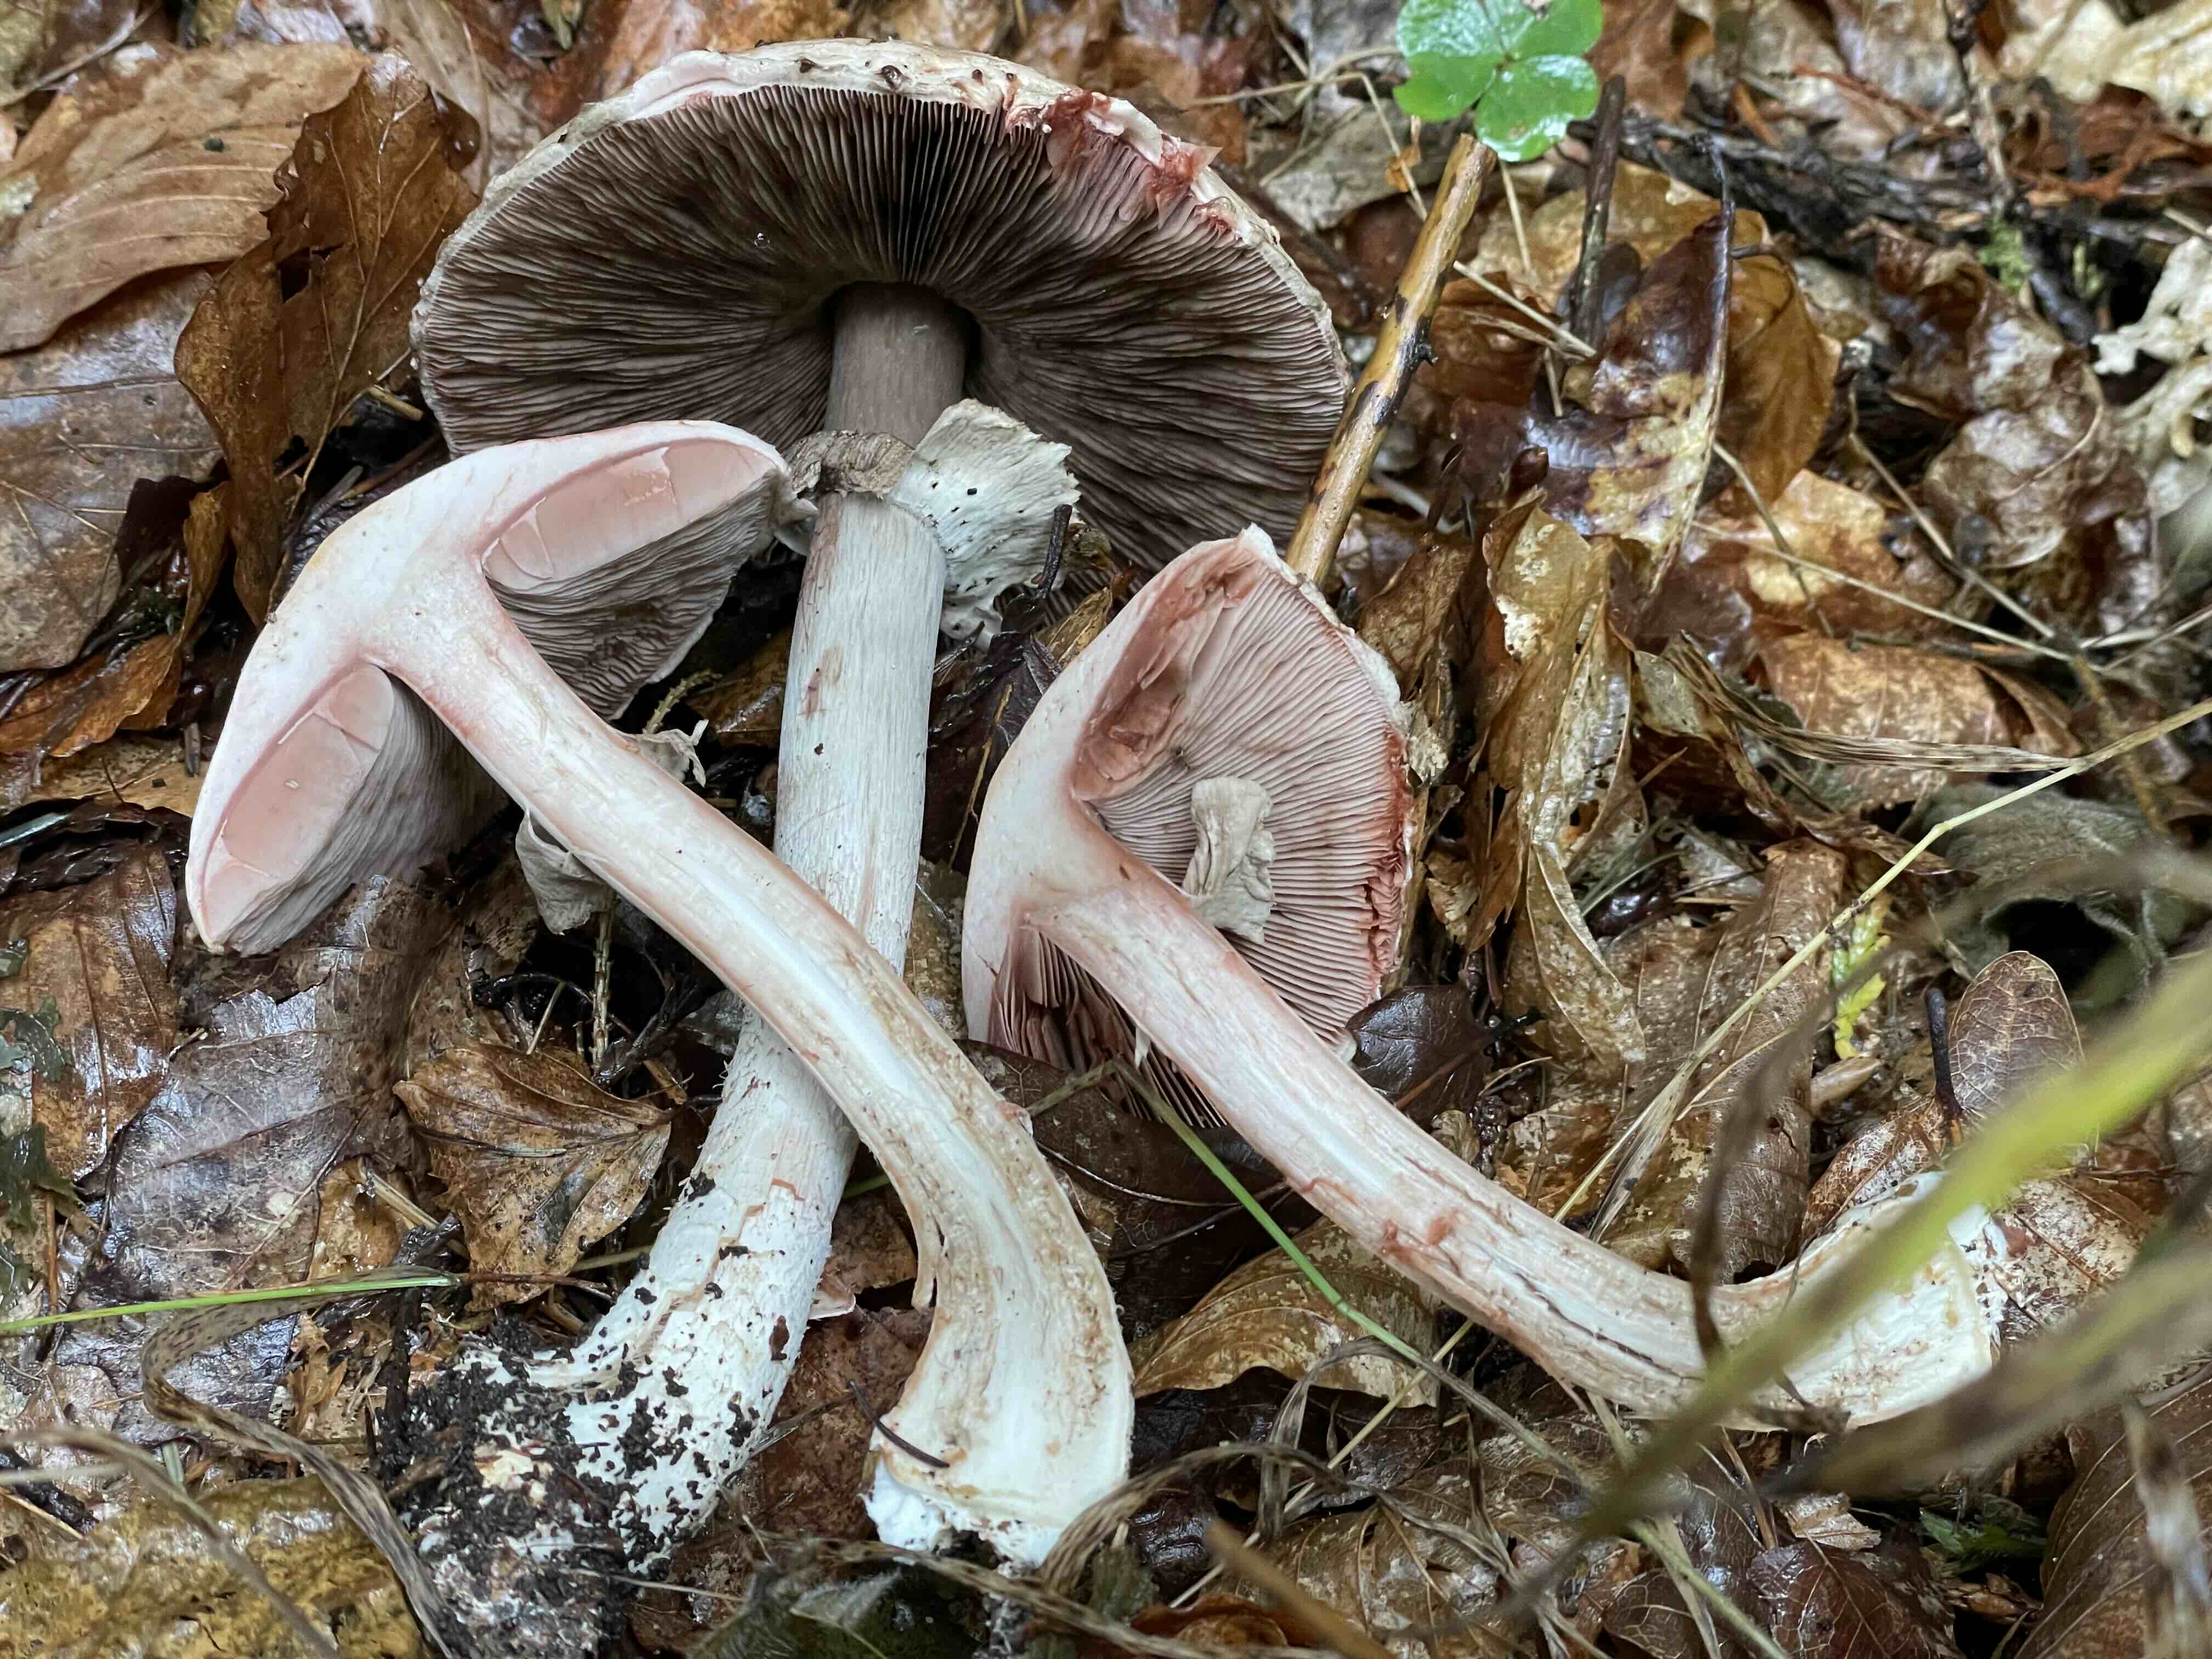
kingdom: Fungi
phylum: Basidiomycota
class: Agaricomycetes
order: Agaricales
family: Agaricaceae
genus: Agaricus
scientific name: Agaricus
